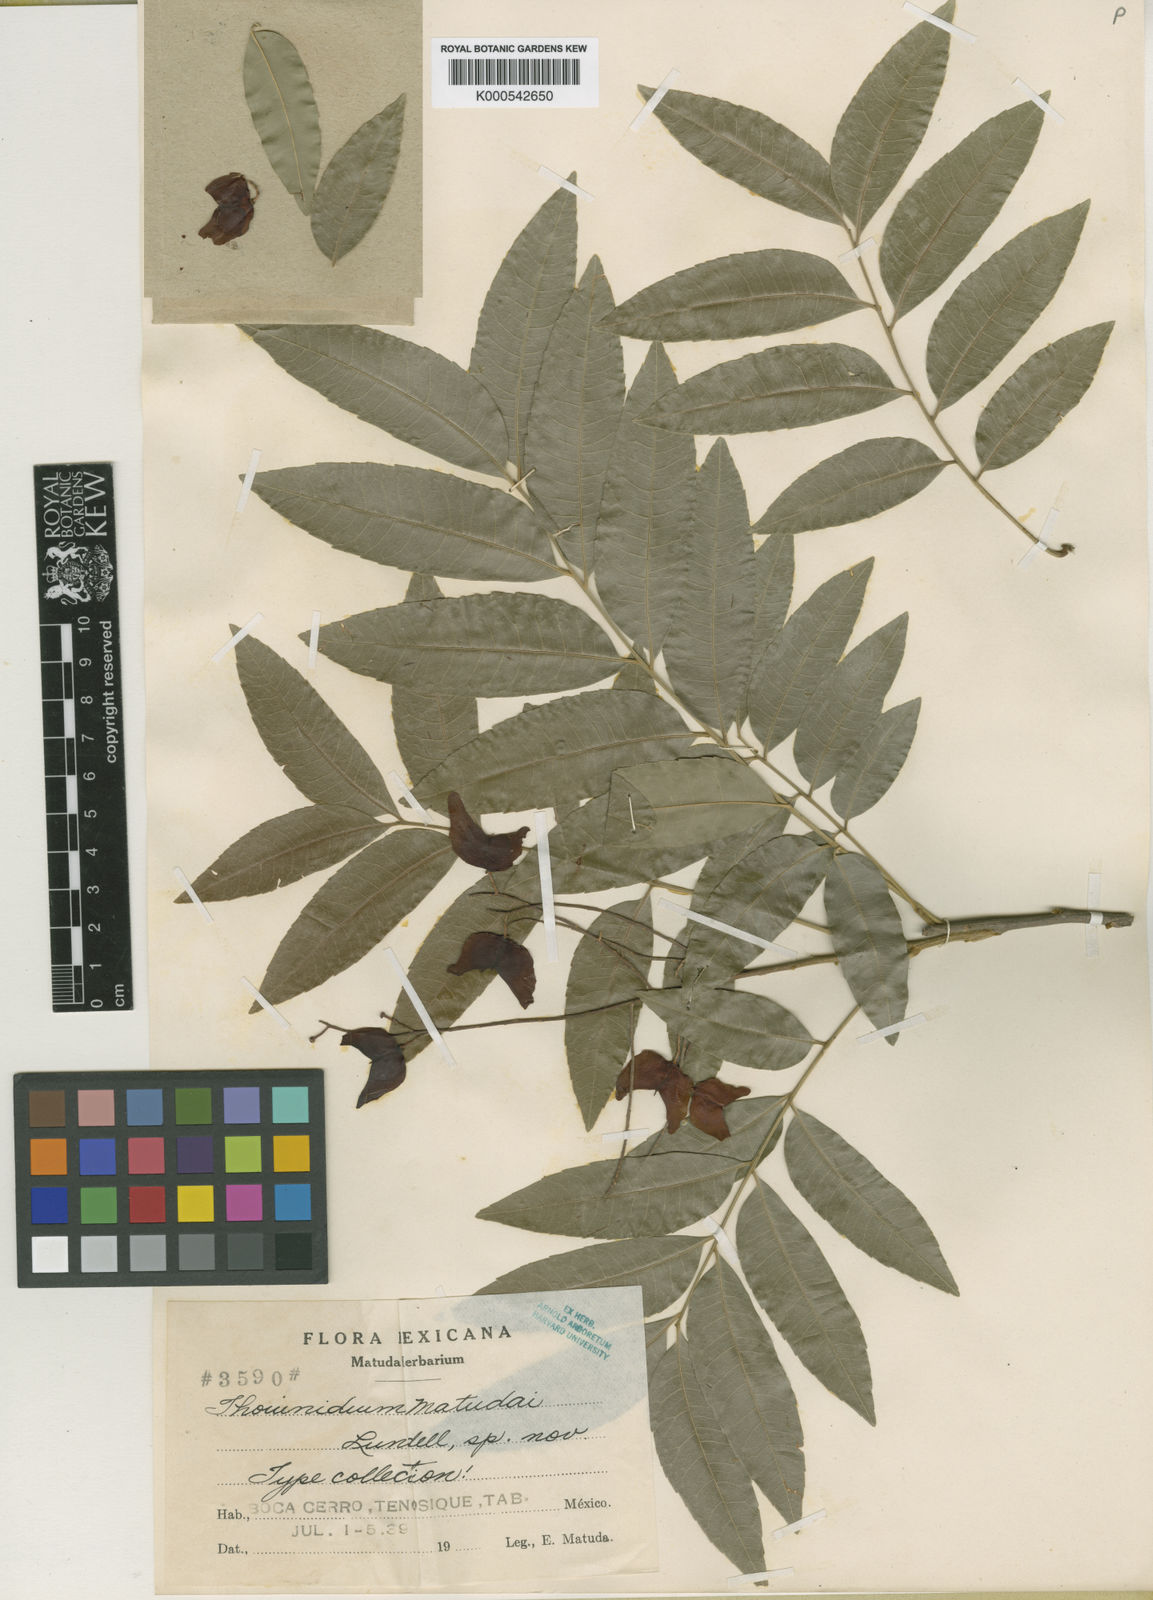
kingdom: Plantae
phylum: Tracheophyta
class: Magnoliopsida
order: Sapindales
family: Sapindaceae
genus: Thouinidium
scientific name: Thouinidium decandrum
